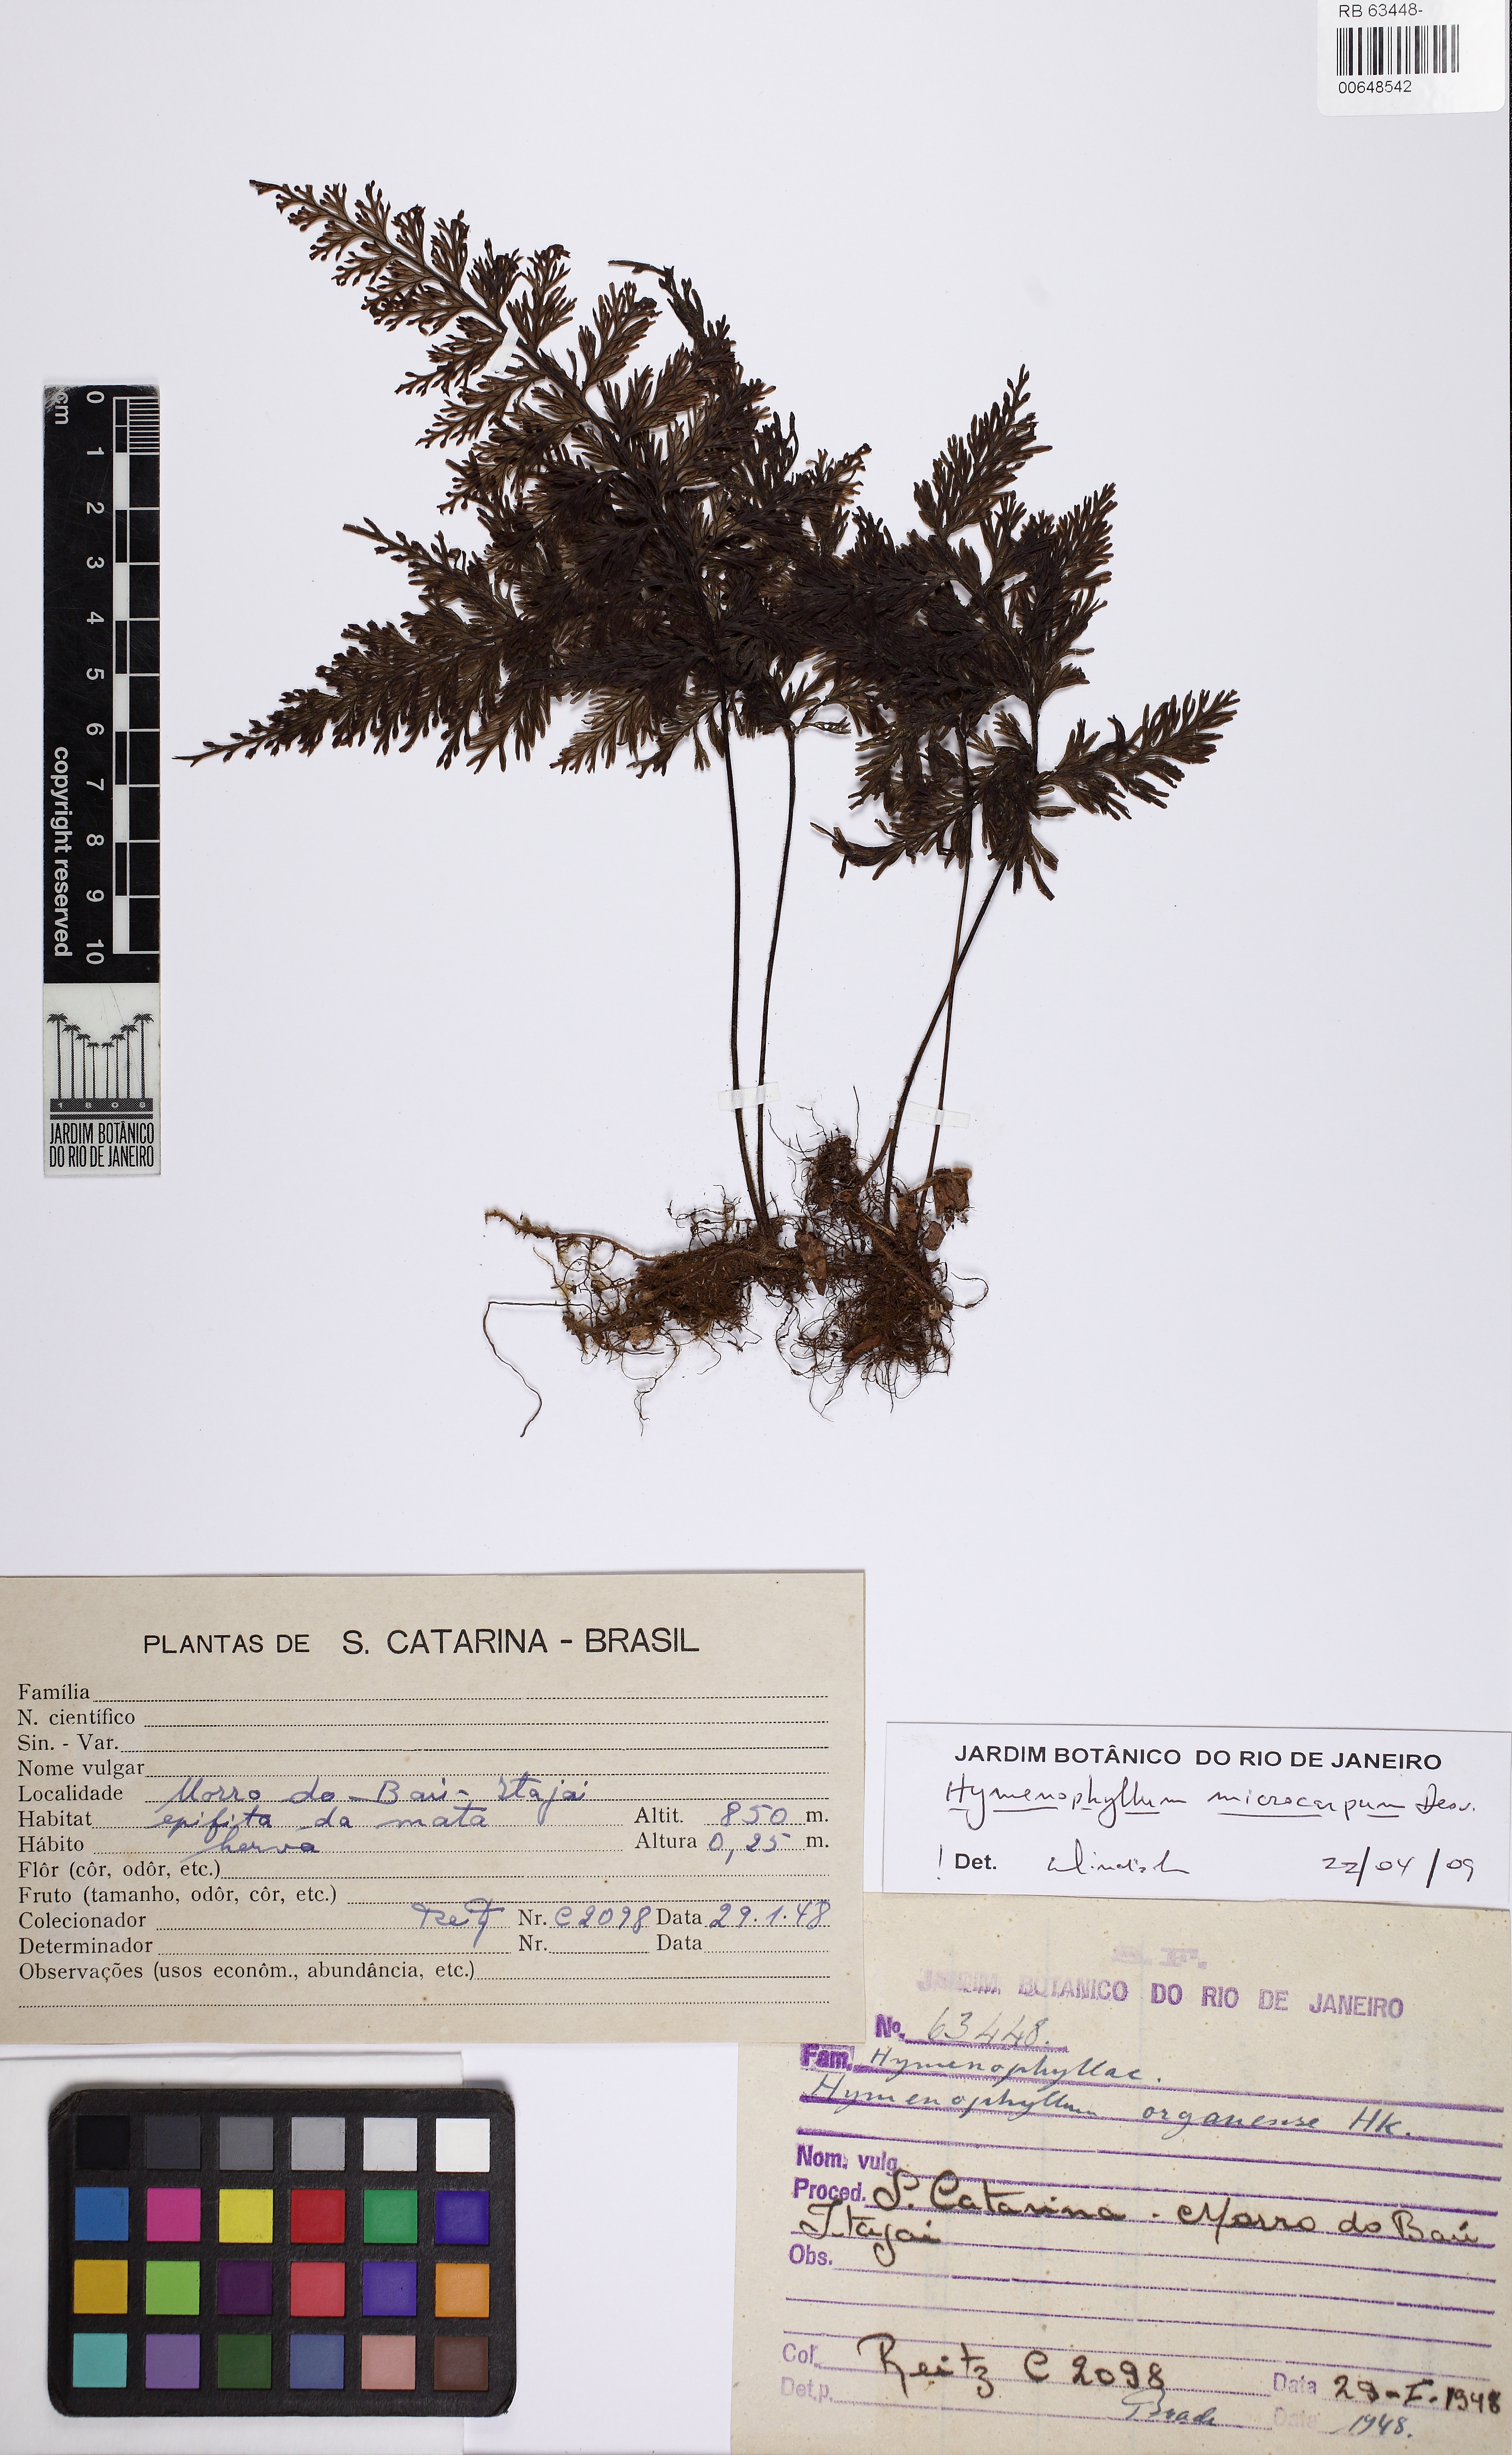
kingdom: Plantae
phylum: Tracheophyta
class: Polypodiopsida
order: Hymenophyllales
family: Hymenophyllaceae
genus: Hymenophyllum
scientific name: Hymenophyllum myriocarpum
